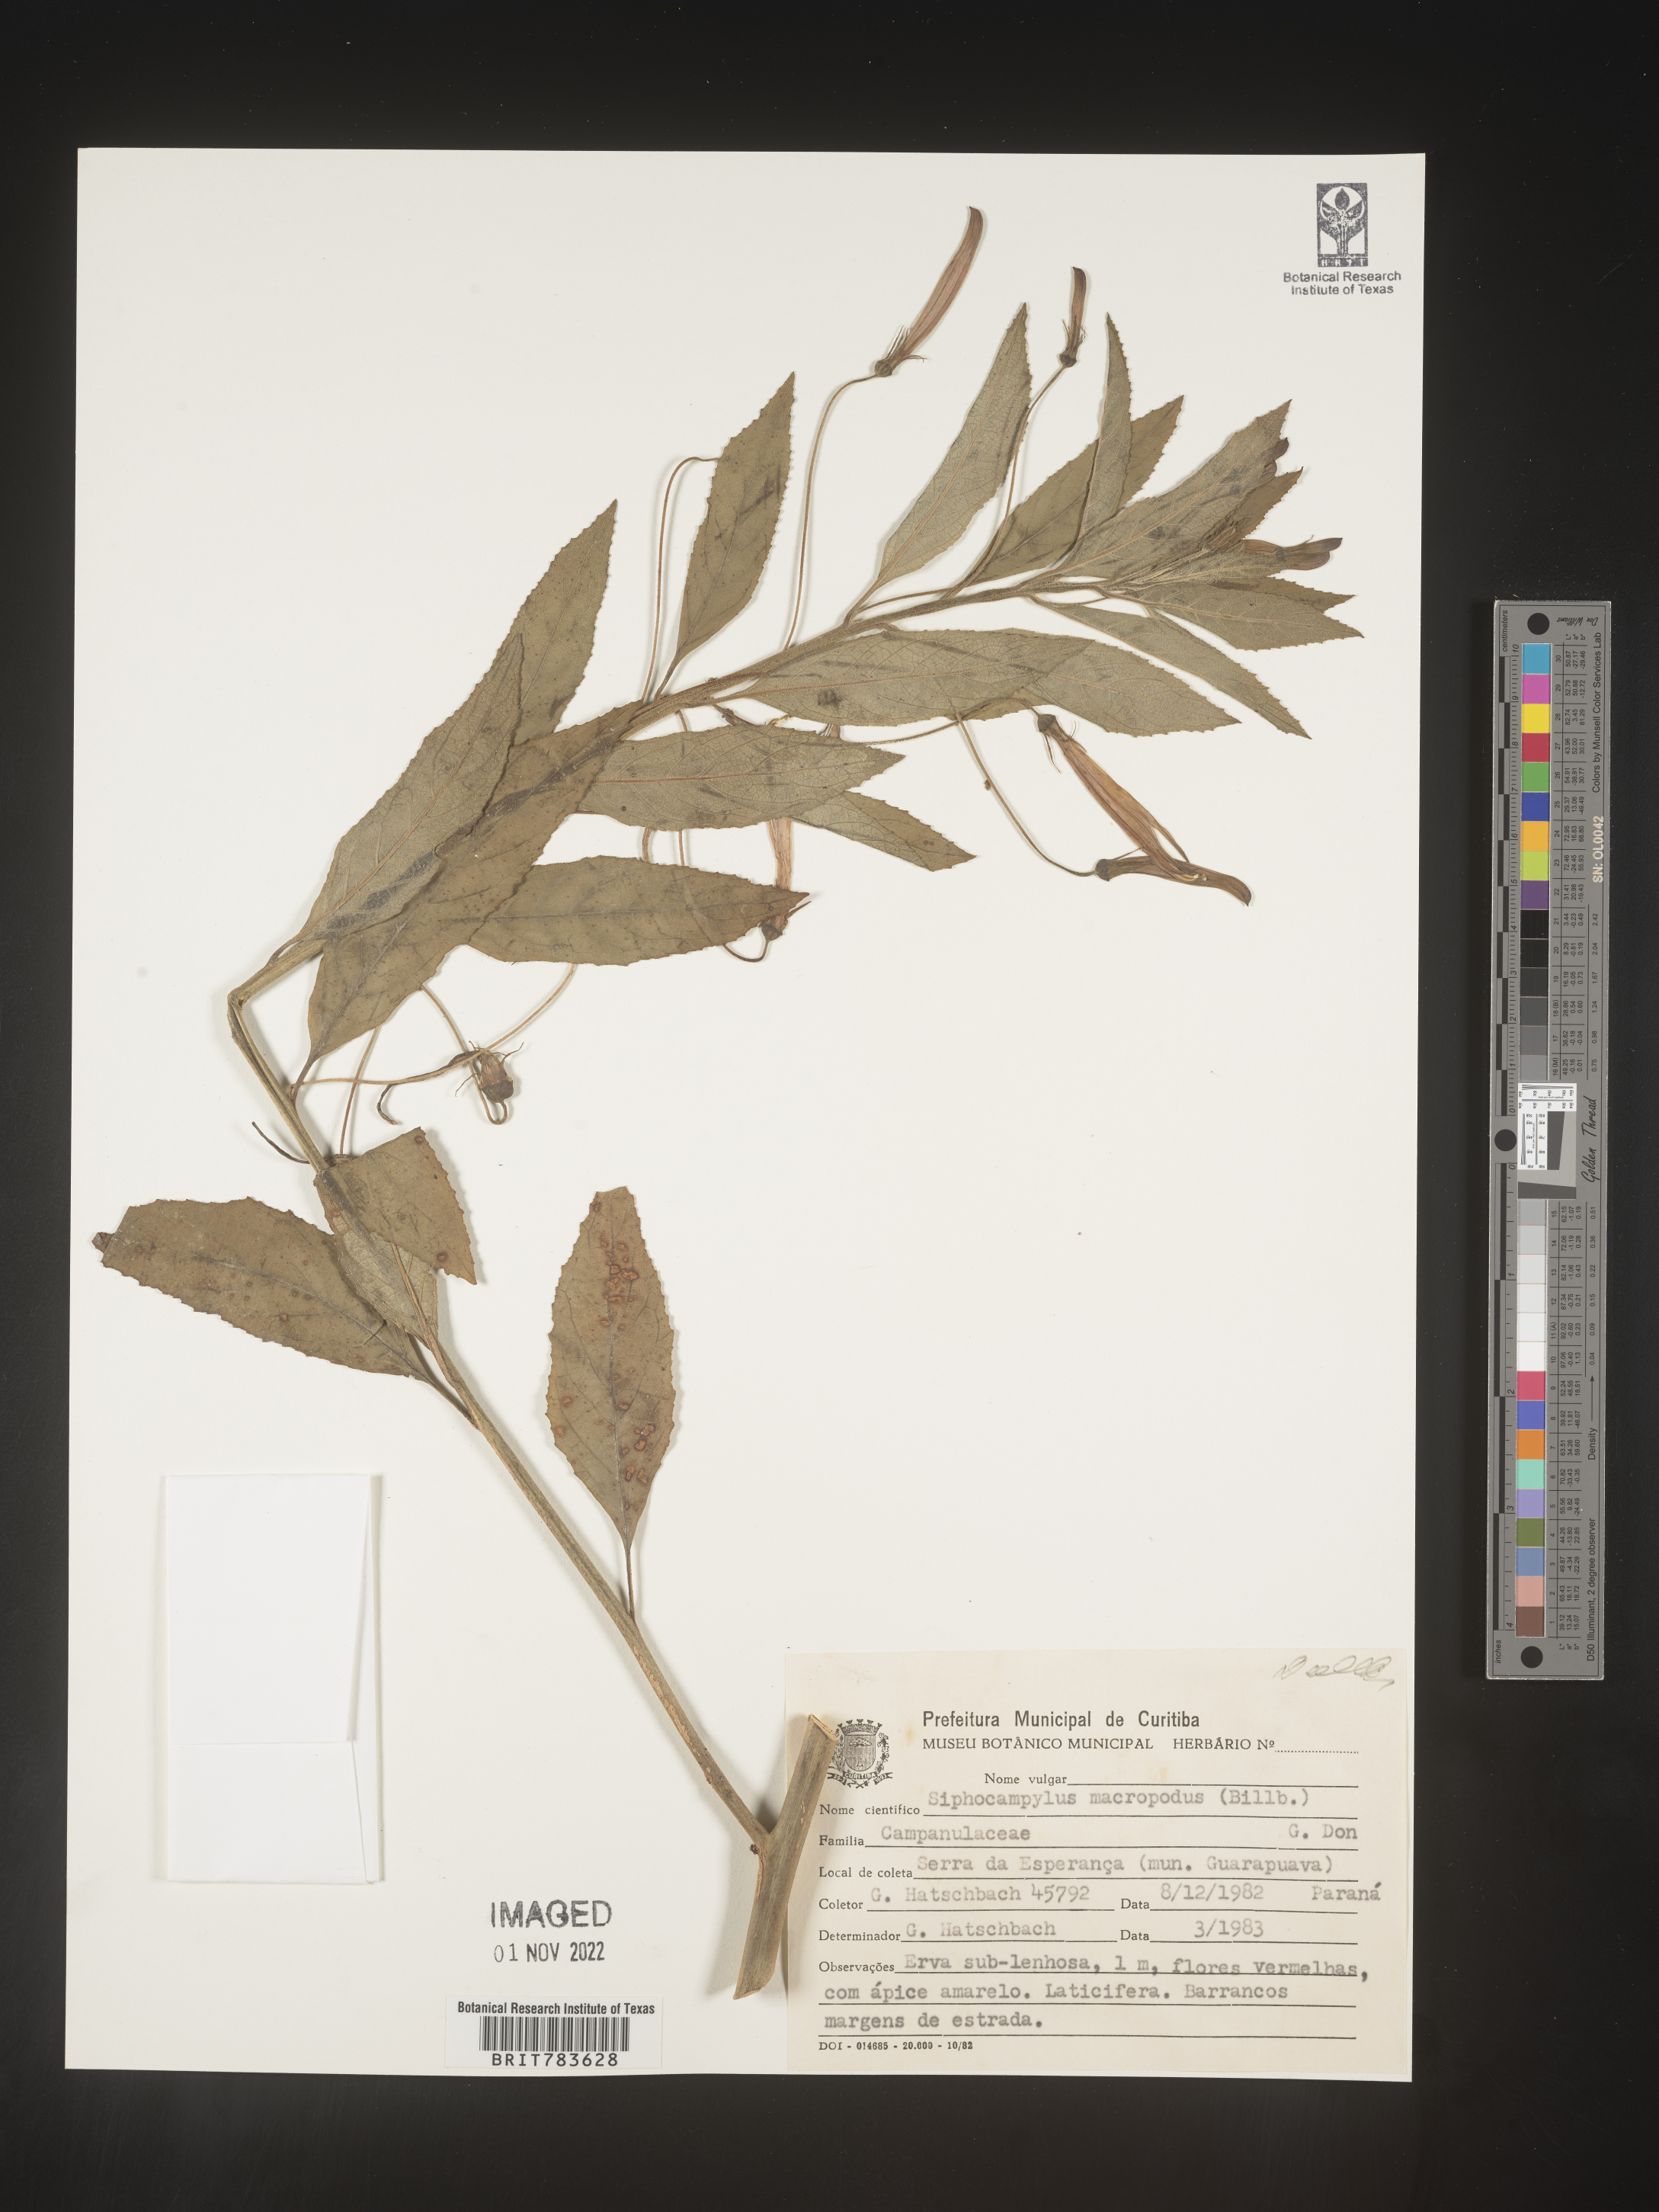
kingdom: Plantae
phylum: Tracheophyta
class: Magnoliopsida
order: Asterales
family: Campanulaceae
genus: Siphocampylus
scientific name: Siphocampylus
